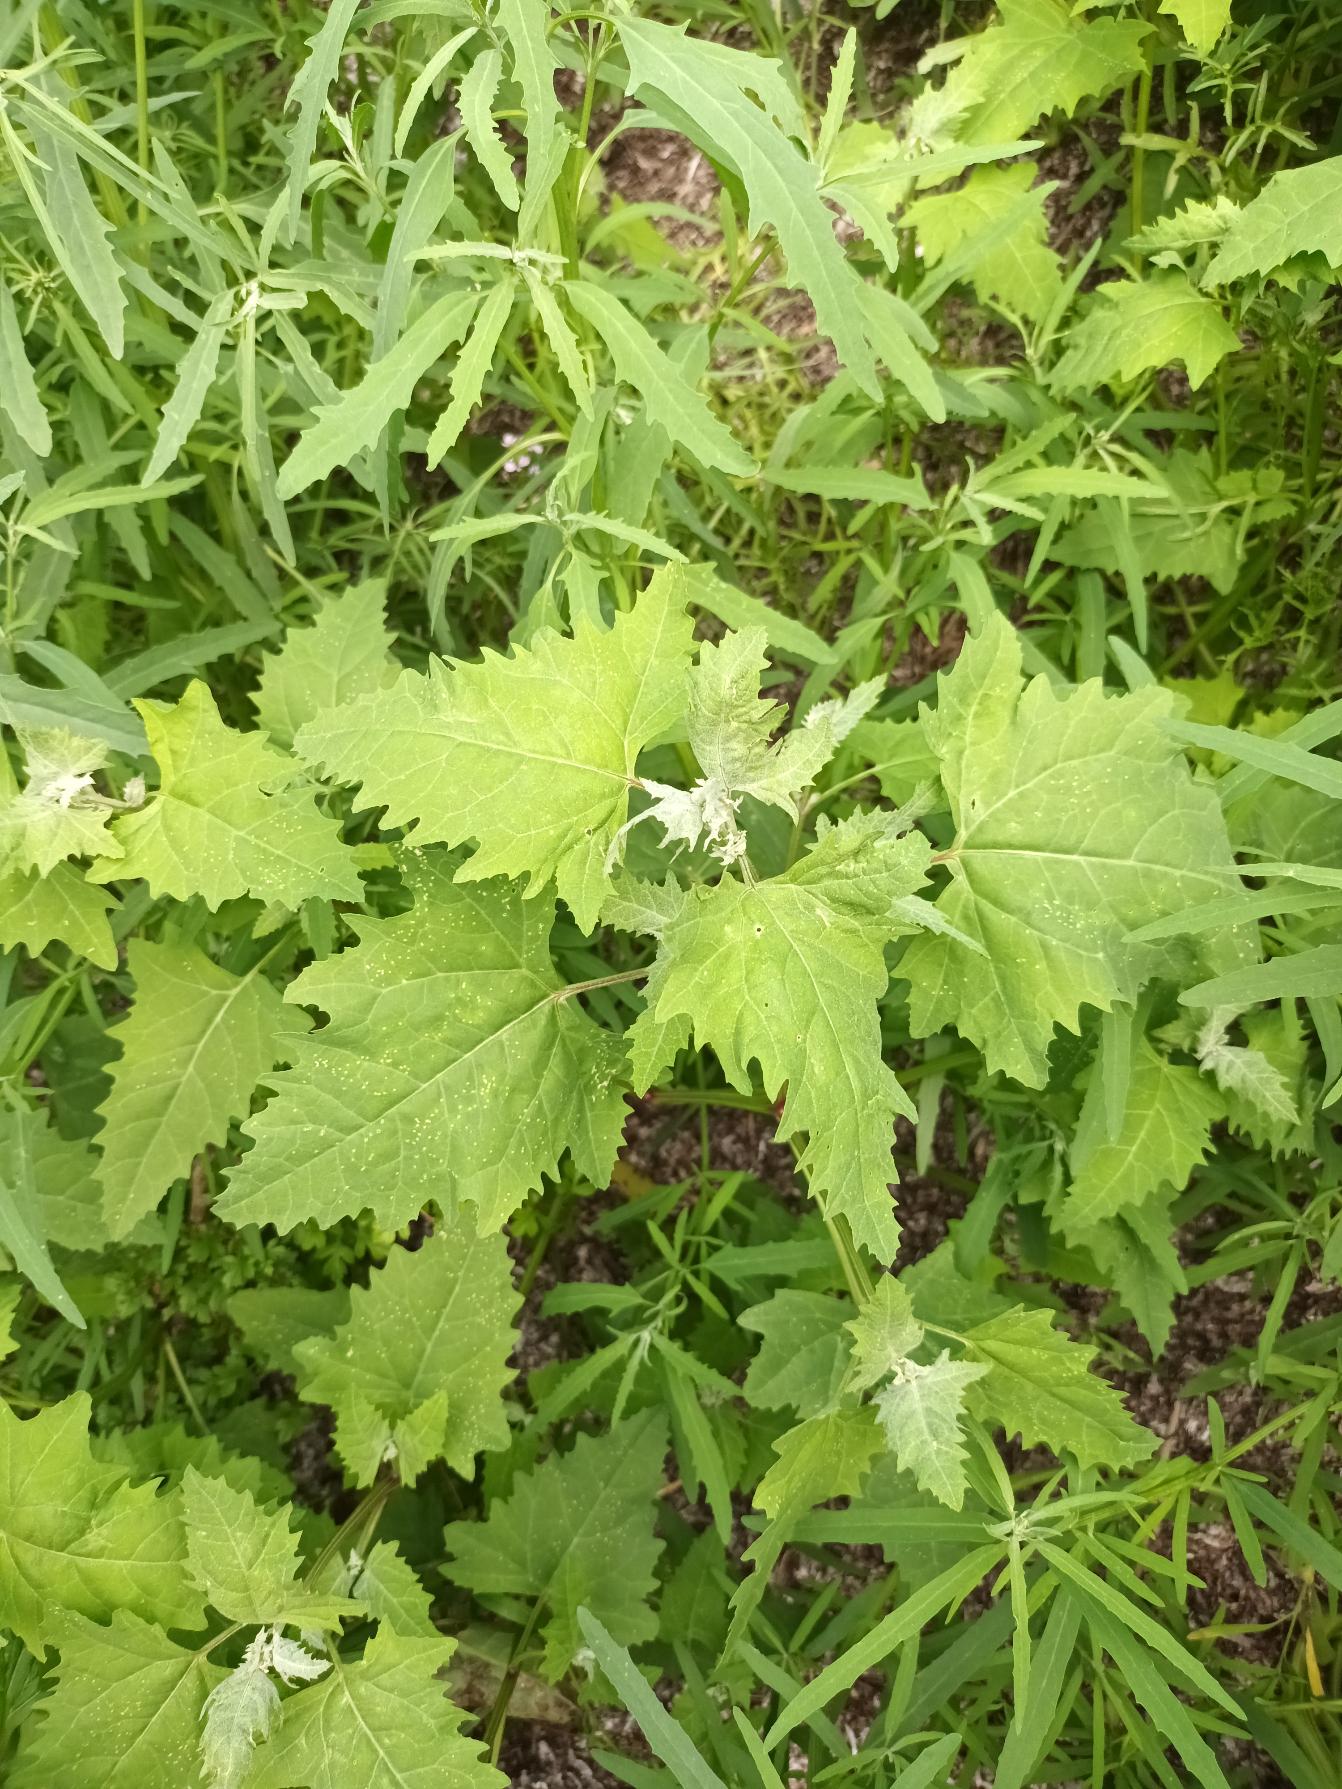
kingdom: Plantae
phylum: Tracheophyta
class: Magnoliopsida
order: Caryophyllales
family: Amaranthaceae
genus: Atriplex
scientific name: Atriplex calotheca
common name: Skønbægret mælde
